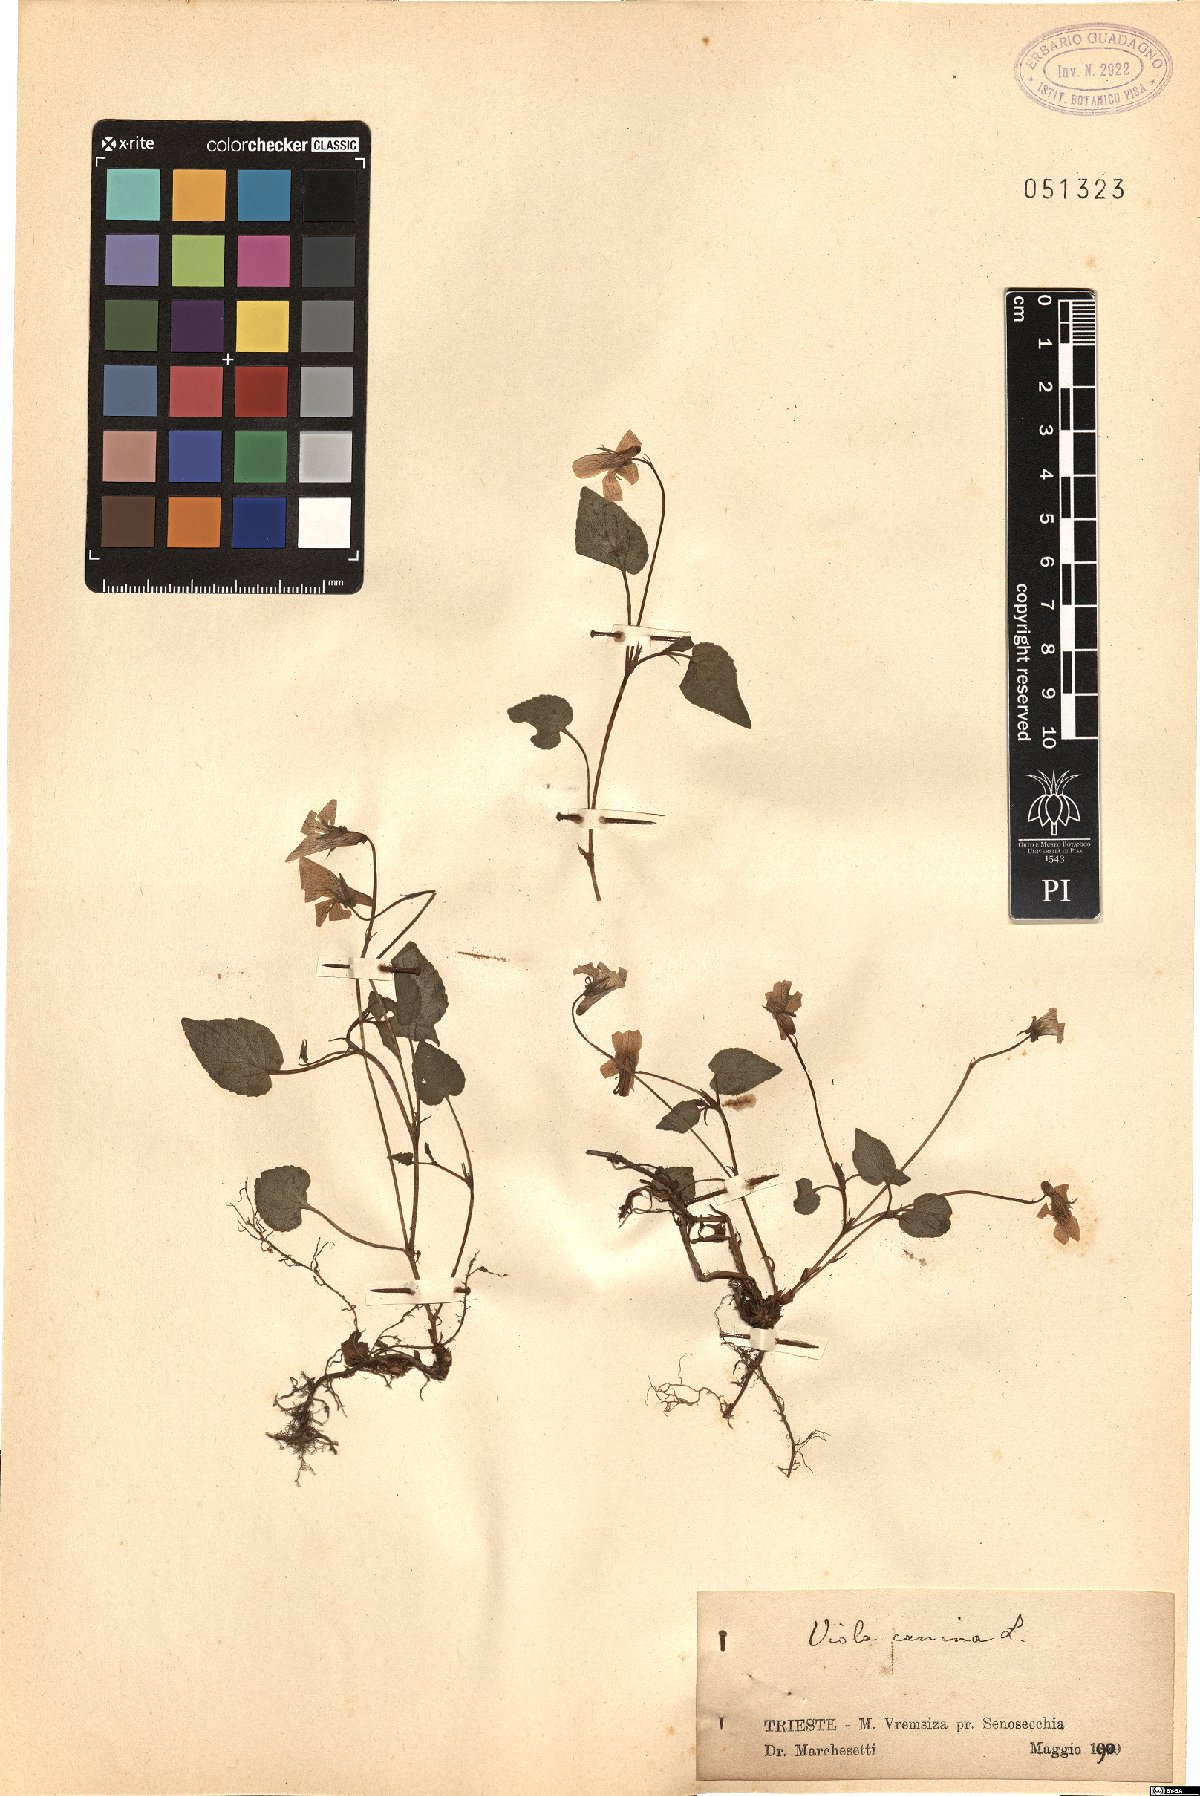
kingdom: Plantae
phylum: Tracheophyta
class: Magnoliopsida
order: Malpighiales
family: Violaceae
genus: Viola
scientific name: Viola canina
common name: Heath dog-violet
